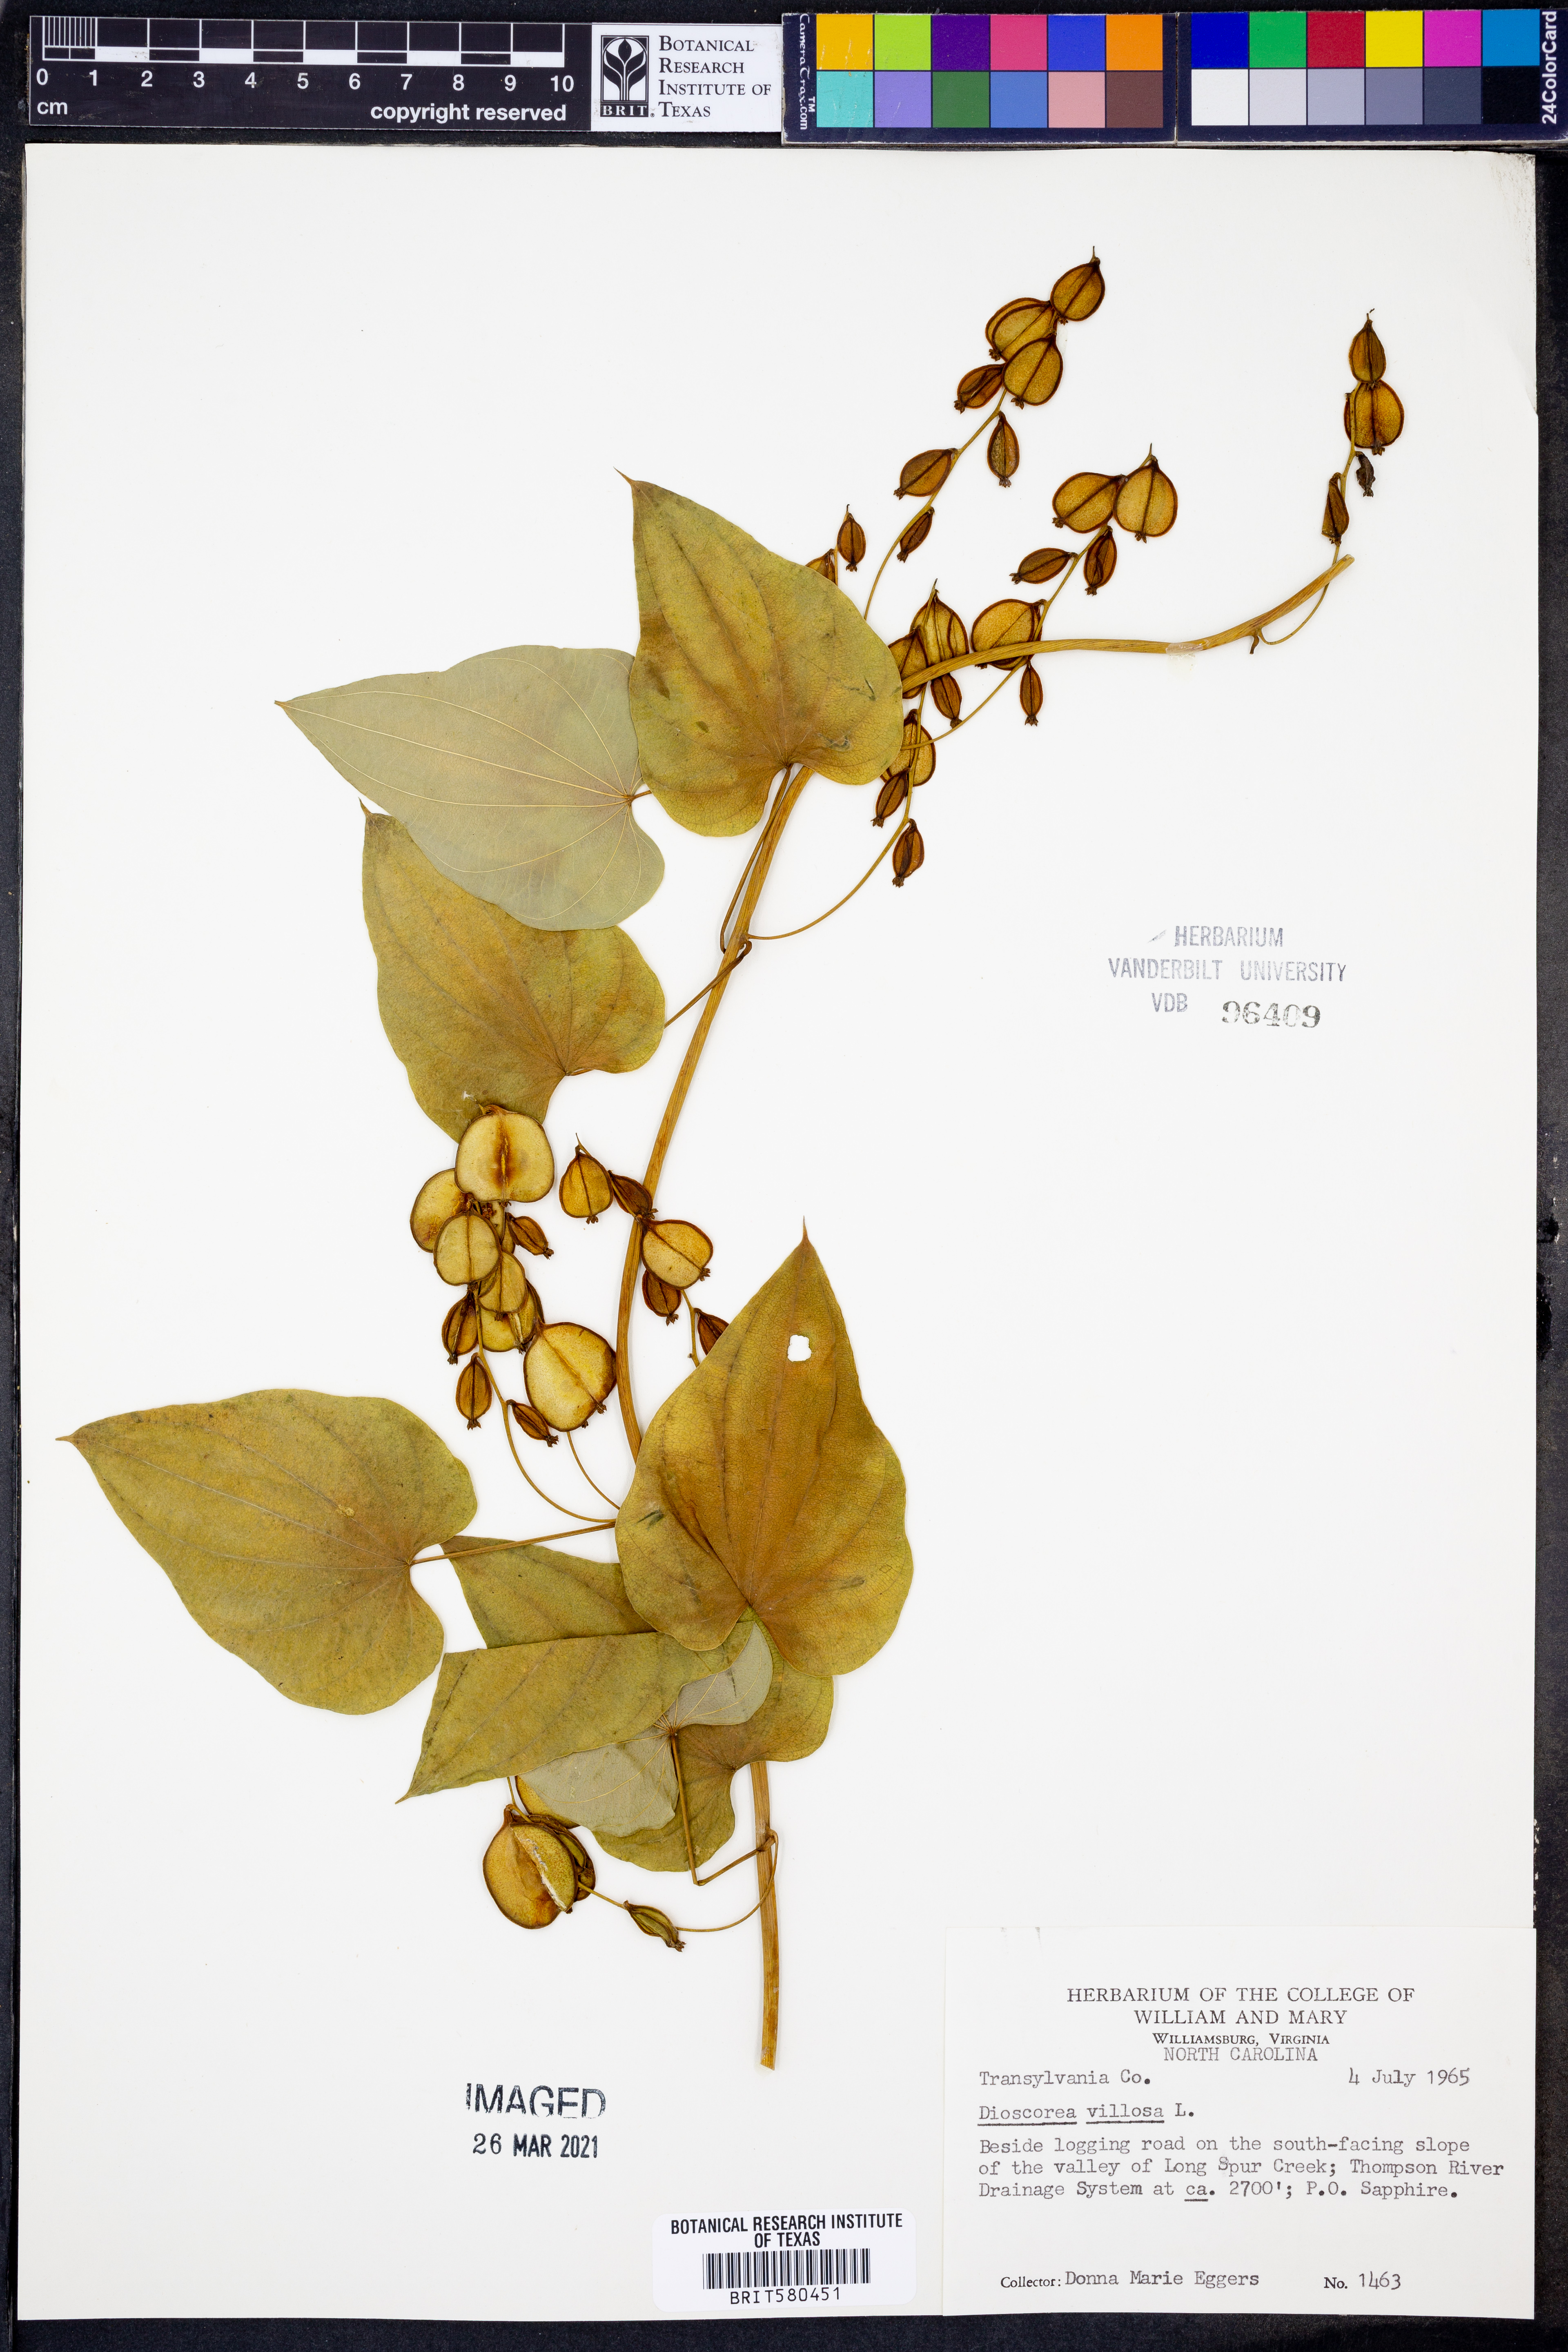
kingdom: Plantae
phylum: Tracheophyta
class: Liliopsida
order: Dioscoreales
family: Dioscoreaceae
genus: Dioscorea
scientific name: Dioscorea villosa
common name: Wild yam
